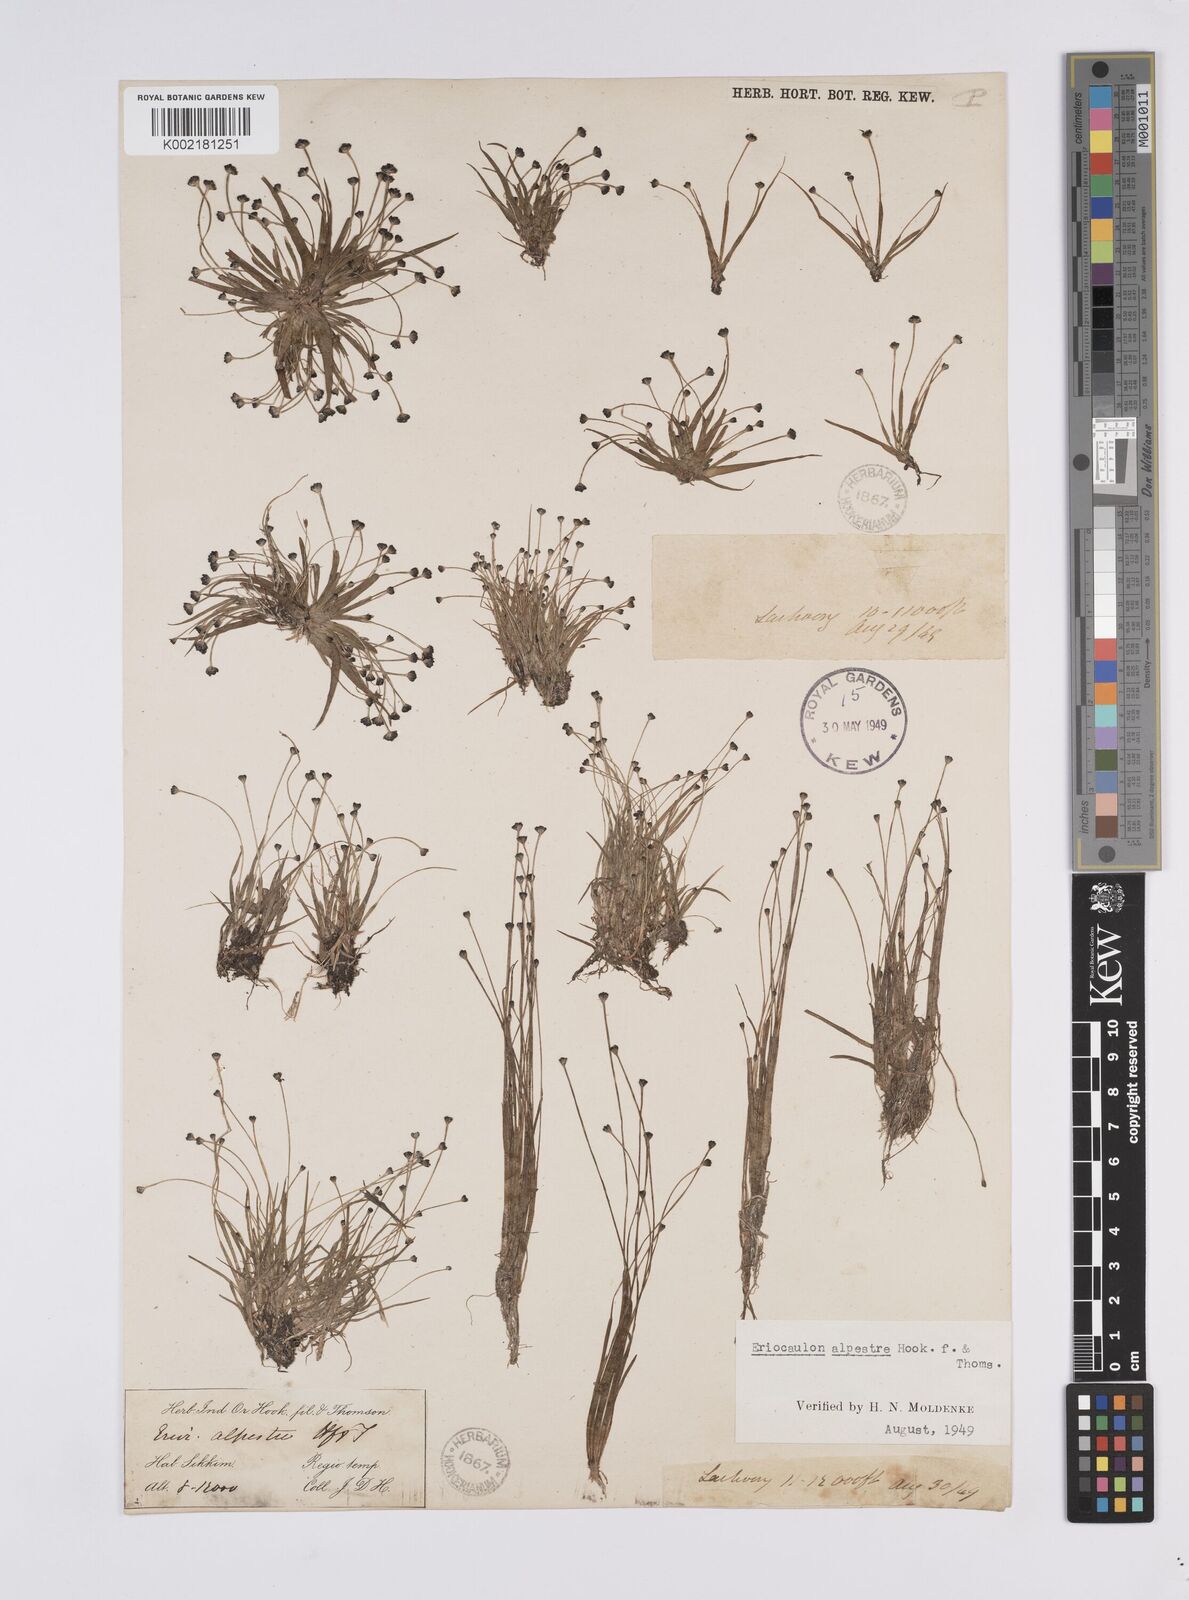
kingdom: Plantae
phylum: Tracheophyta
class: Liliopsida
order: Poales
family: Eriocaulaceae
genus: Eriocaulon
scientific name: Eriocaulon alpestre
